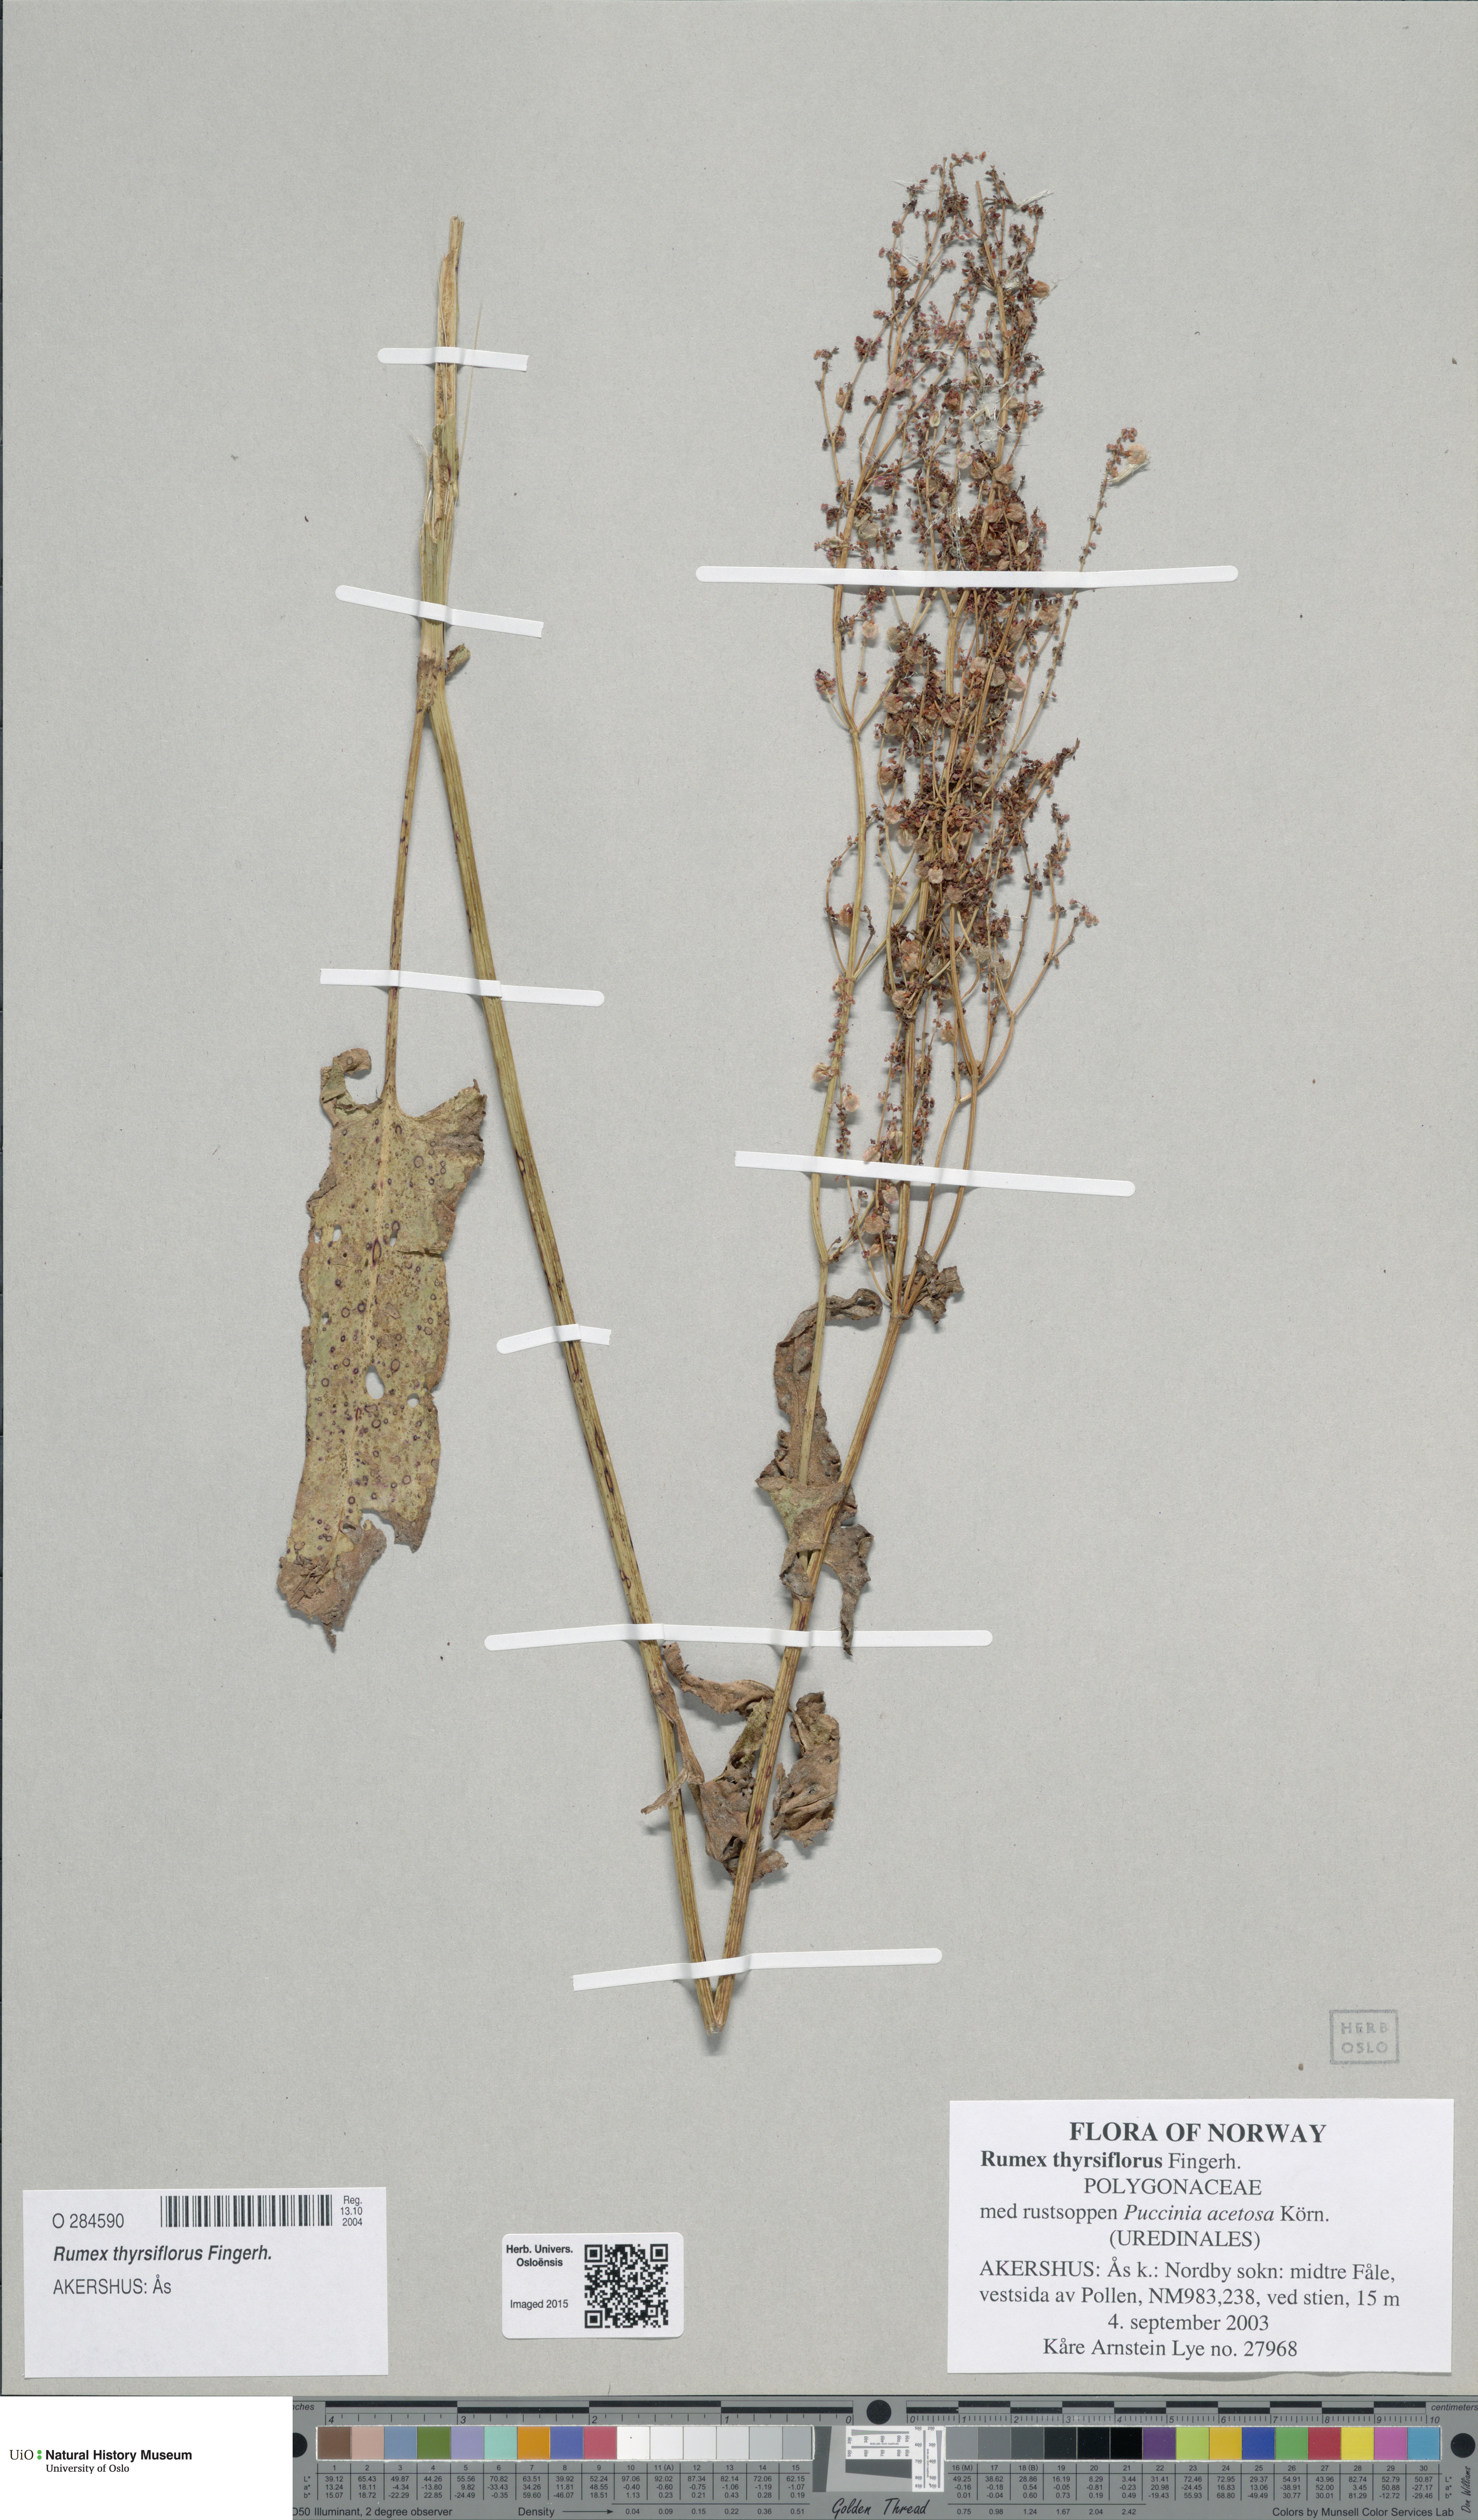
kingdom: Plantae
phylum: Tracheophyta
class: Magnoliopsida
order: Caryophyllales
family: Polygonaceae
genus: Rumex
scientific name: Rumex thyrsiflorus
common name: Garden sorrel
